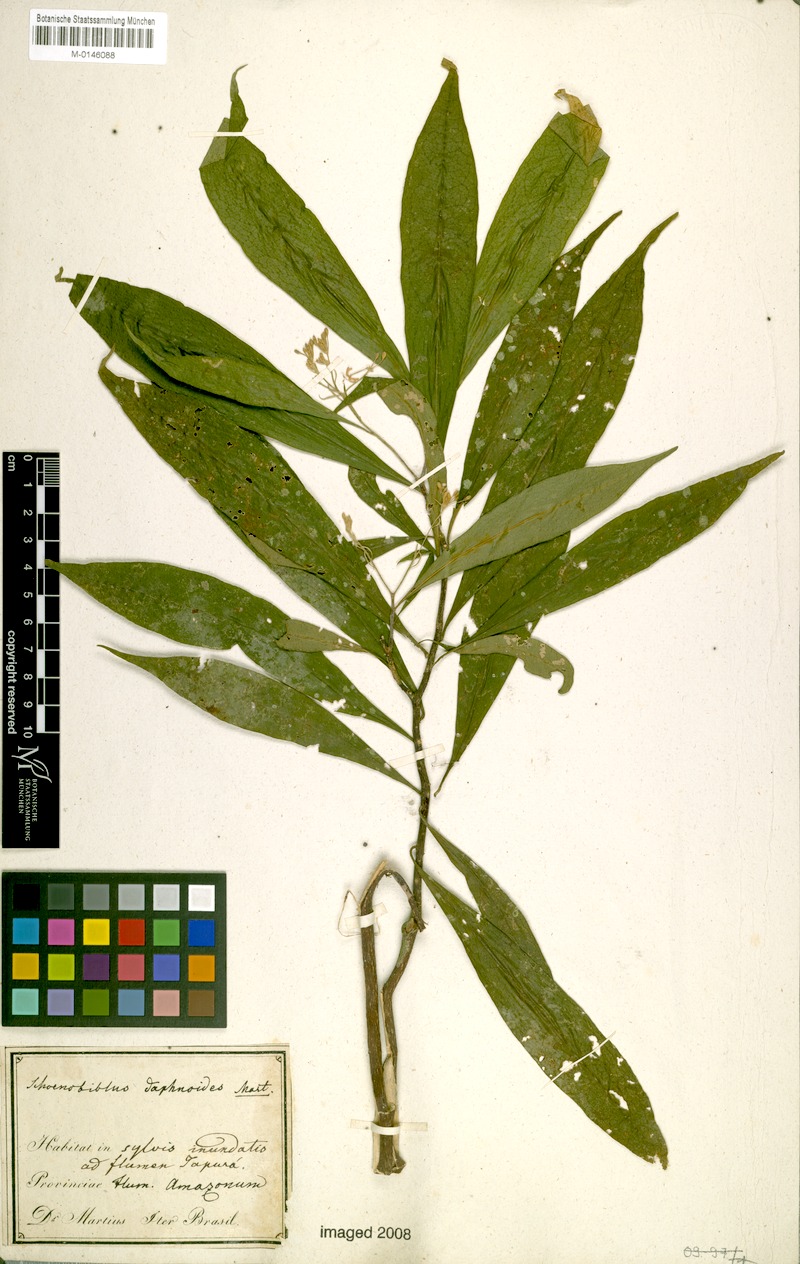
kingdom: Plantae
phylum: Tracheophyta
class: Magnoliopsida
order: Malvales
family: Thymelaeaceae
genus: Schoenobiblus
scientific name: Schoenobiblus daphnoides
